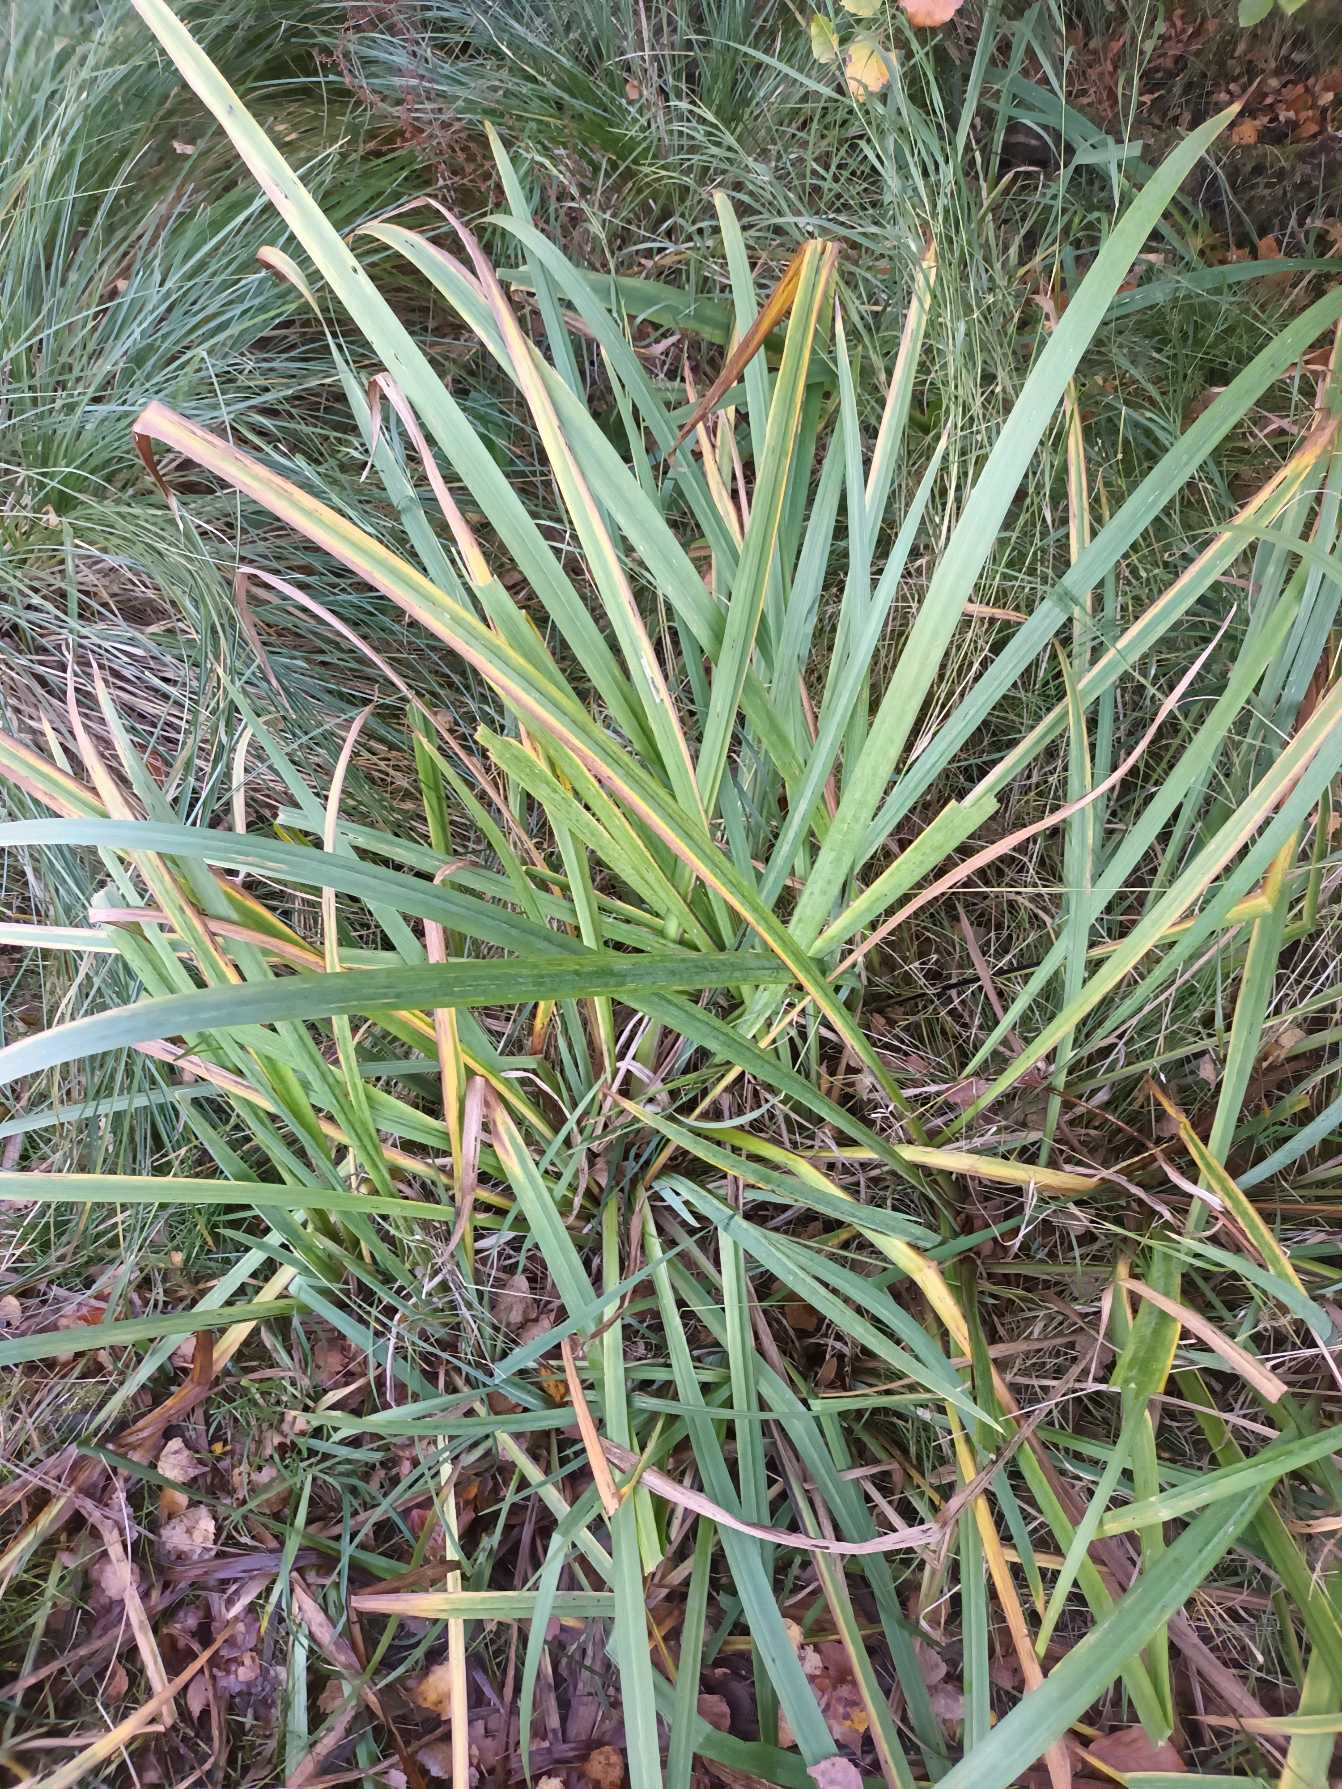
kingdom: Plantae
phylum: Tracheophyta
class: Liliopsida
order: Asparagales
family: Iridaceae
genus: Iris
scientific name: Iris pseudacorus
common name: Gul iris
